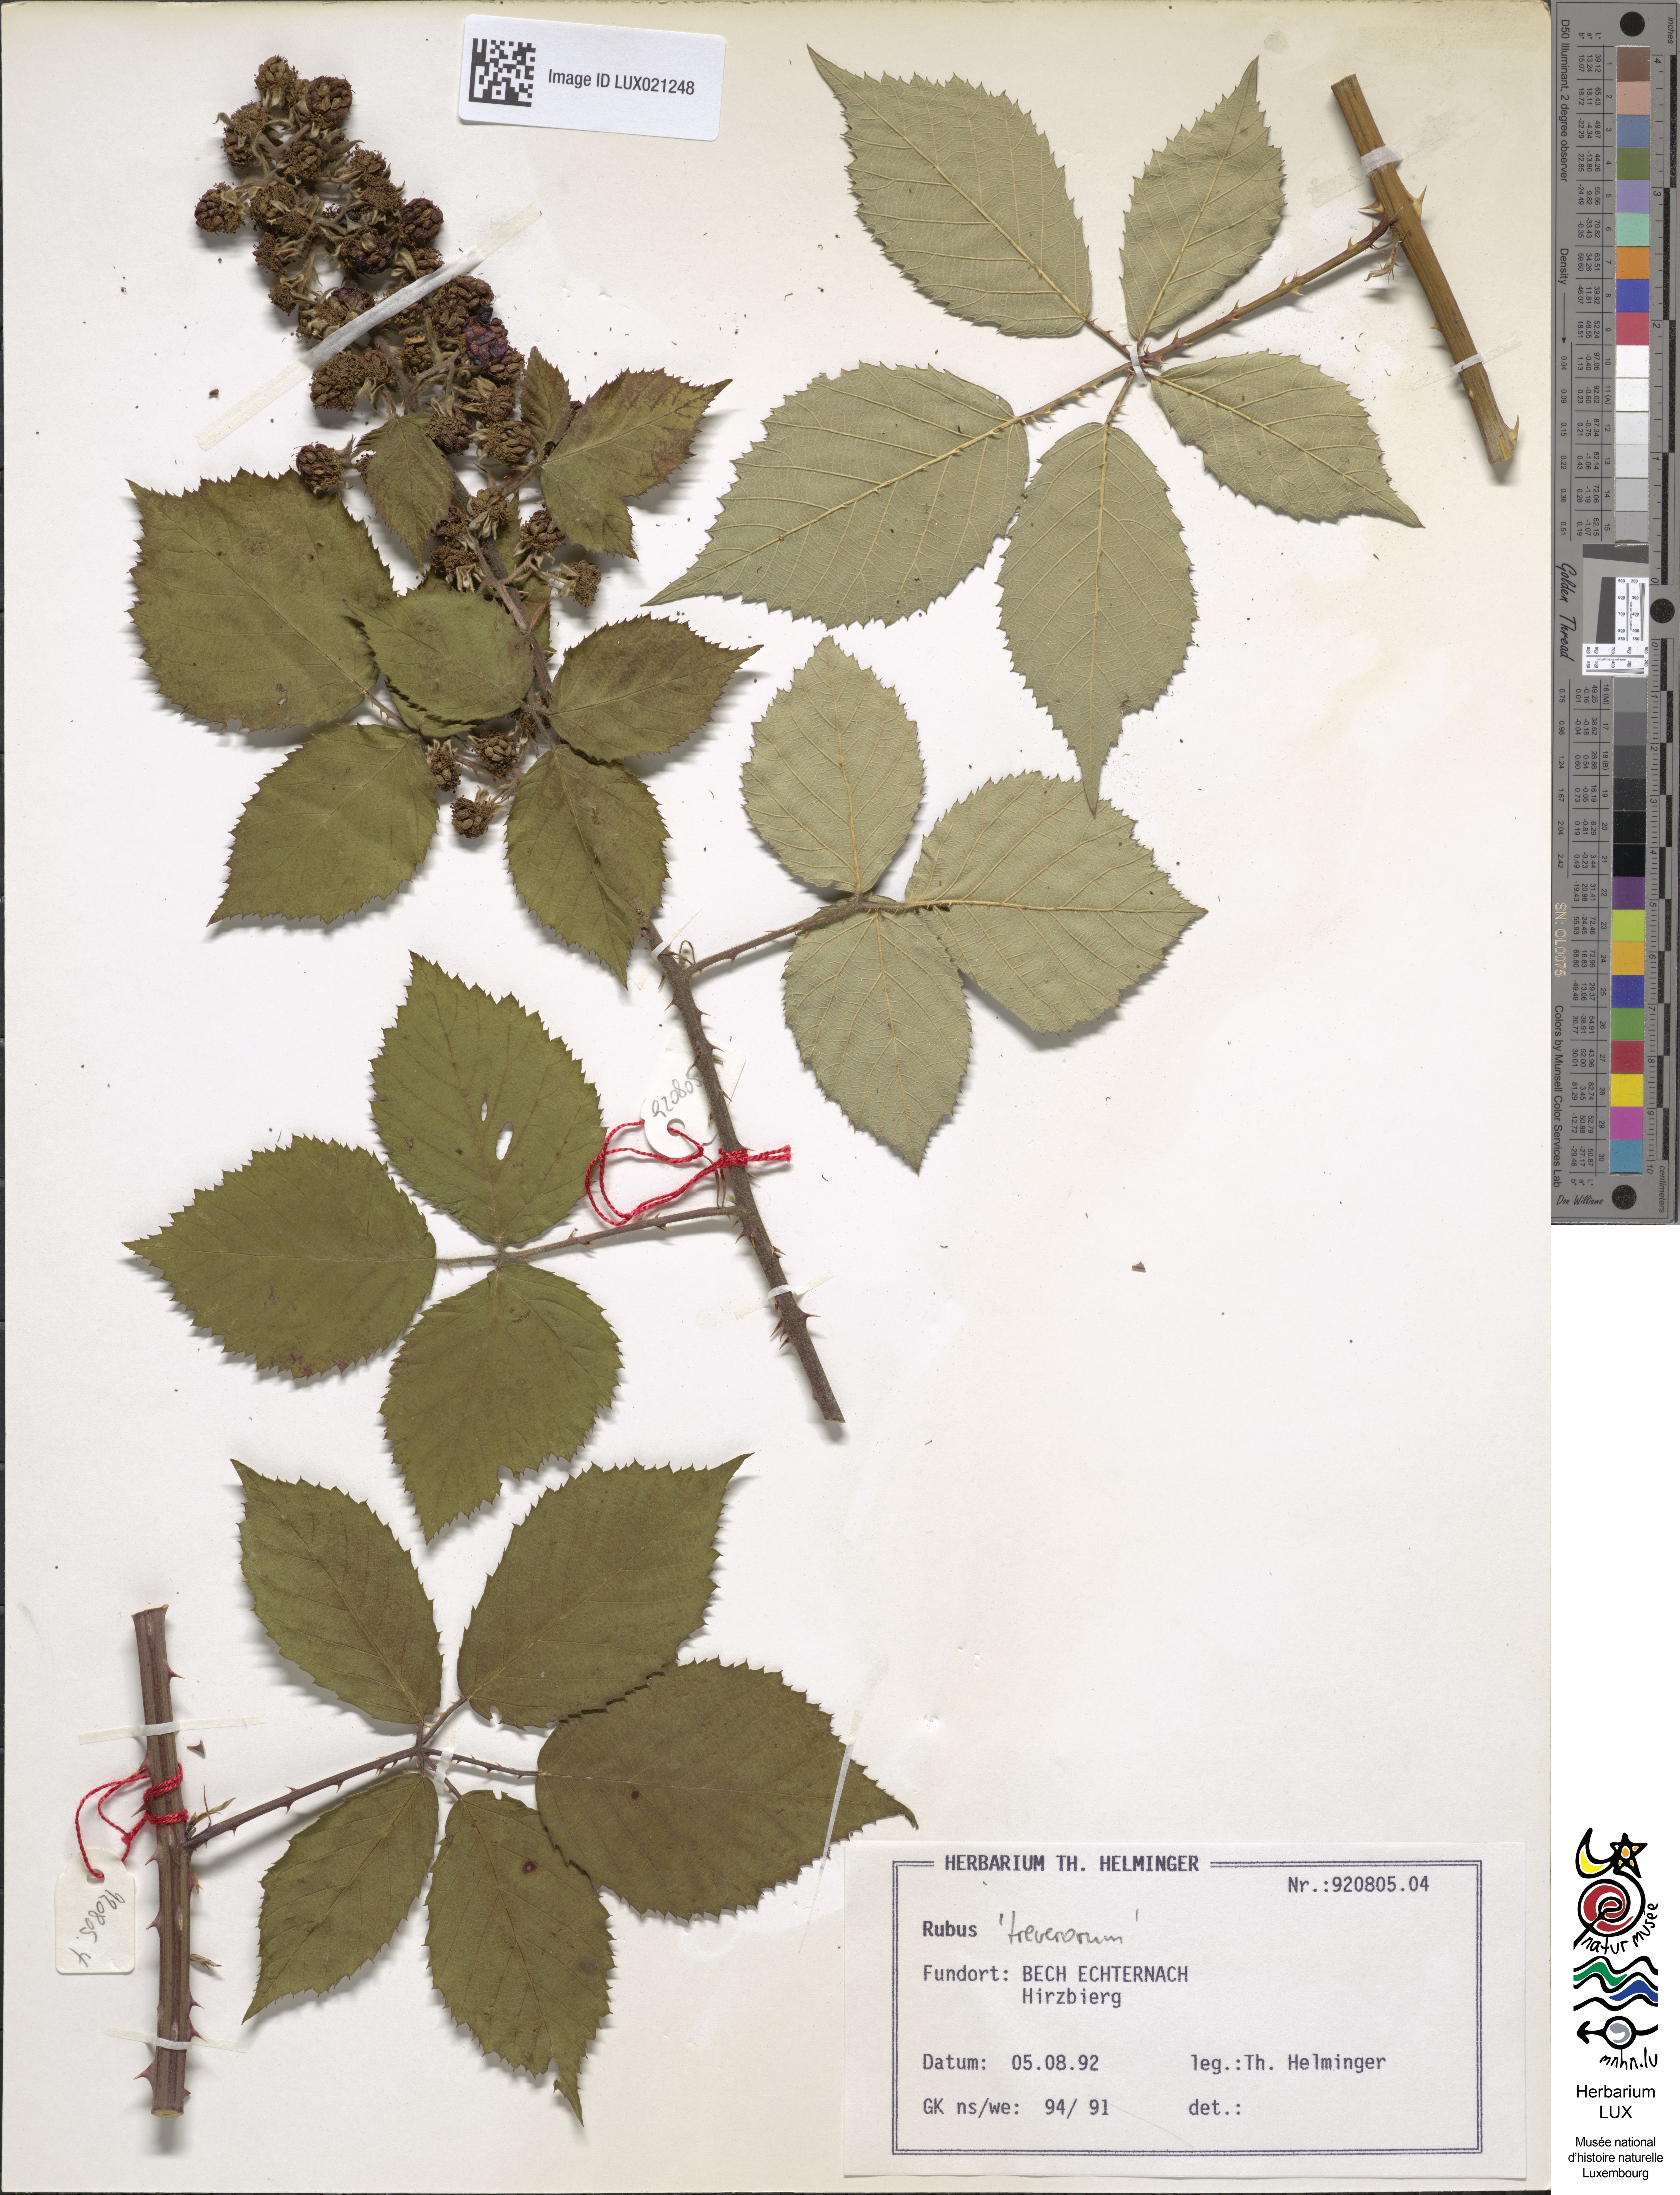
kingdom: Plantae
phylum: Tracheophyta
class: Magnoliopsida
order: Rosales
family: Rosaceae
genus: Rubus
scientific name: Rubus
